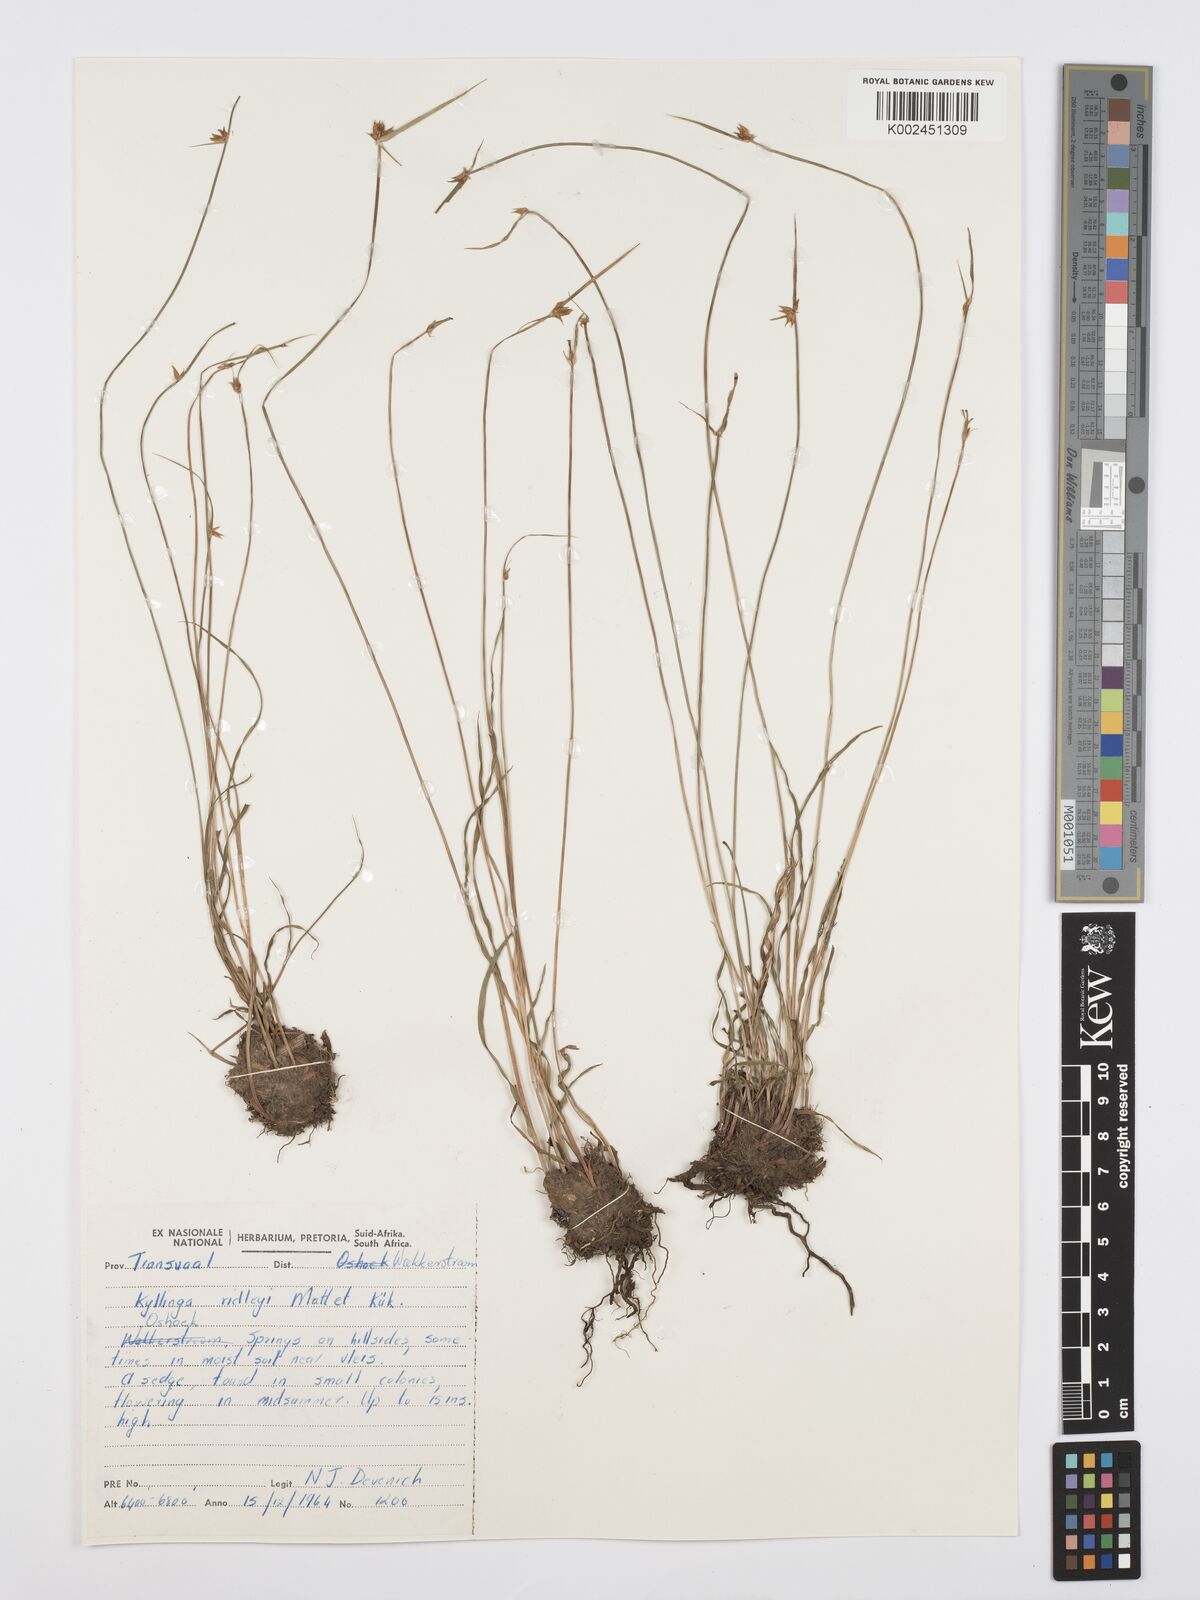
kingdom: Plantae
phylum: Tracheophyta
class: Liliopsida
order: Poales
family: Cyperaceae
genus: Cyperus
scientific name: Cyperus
